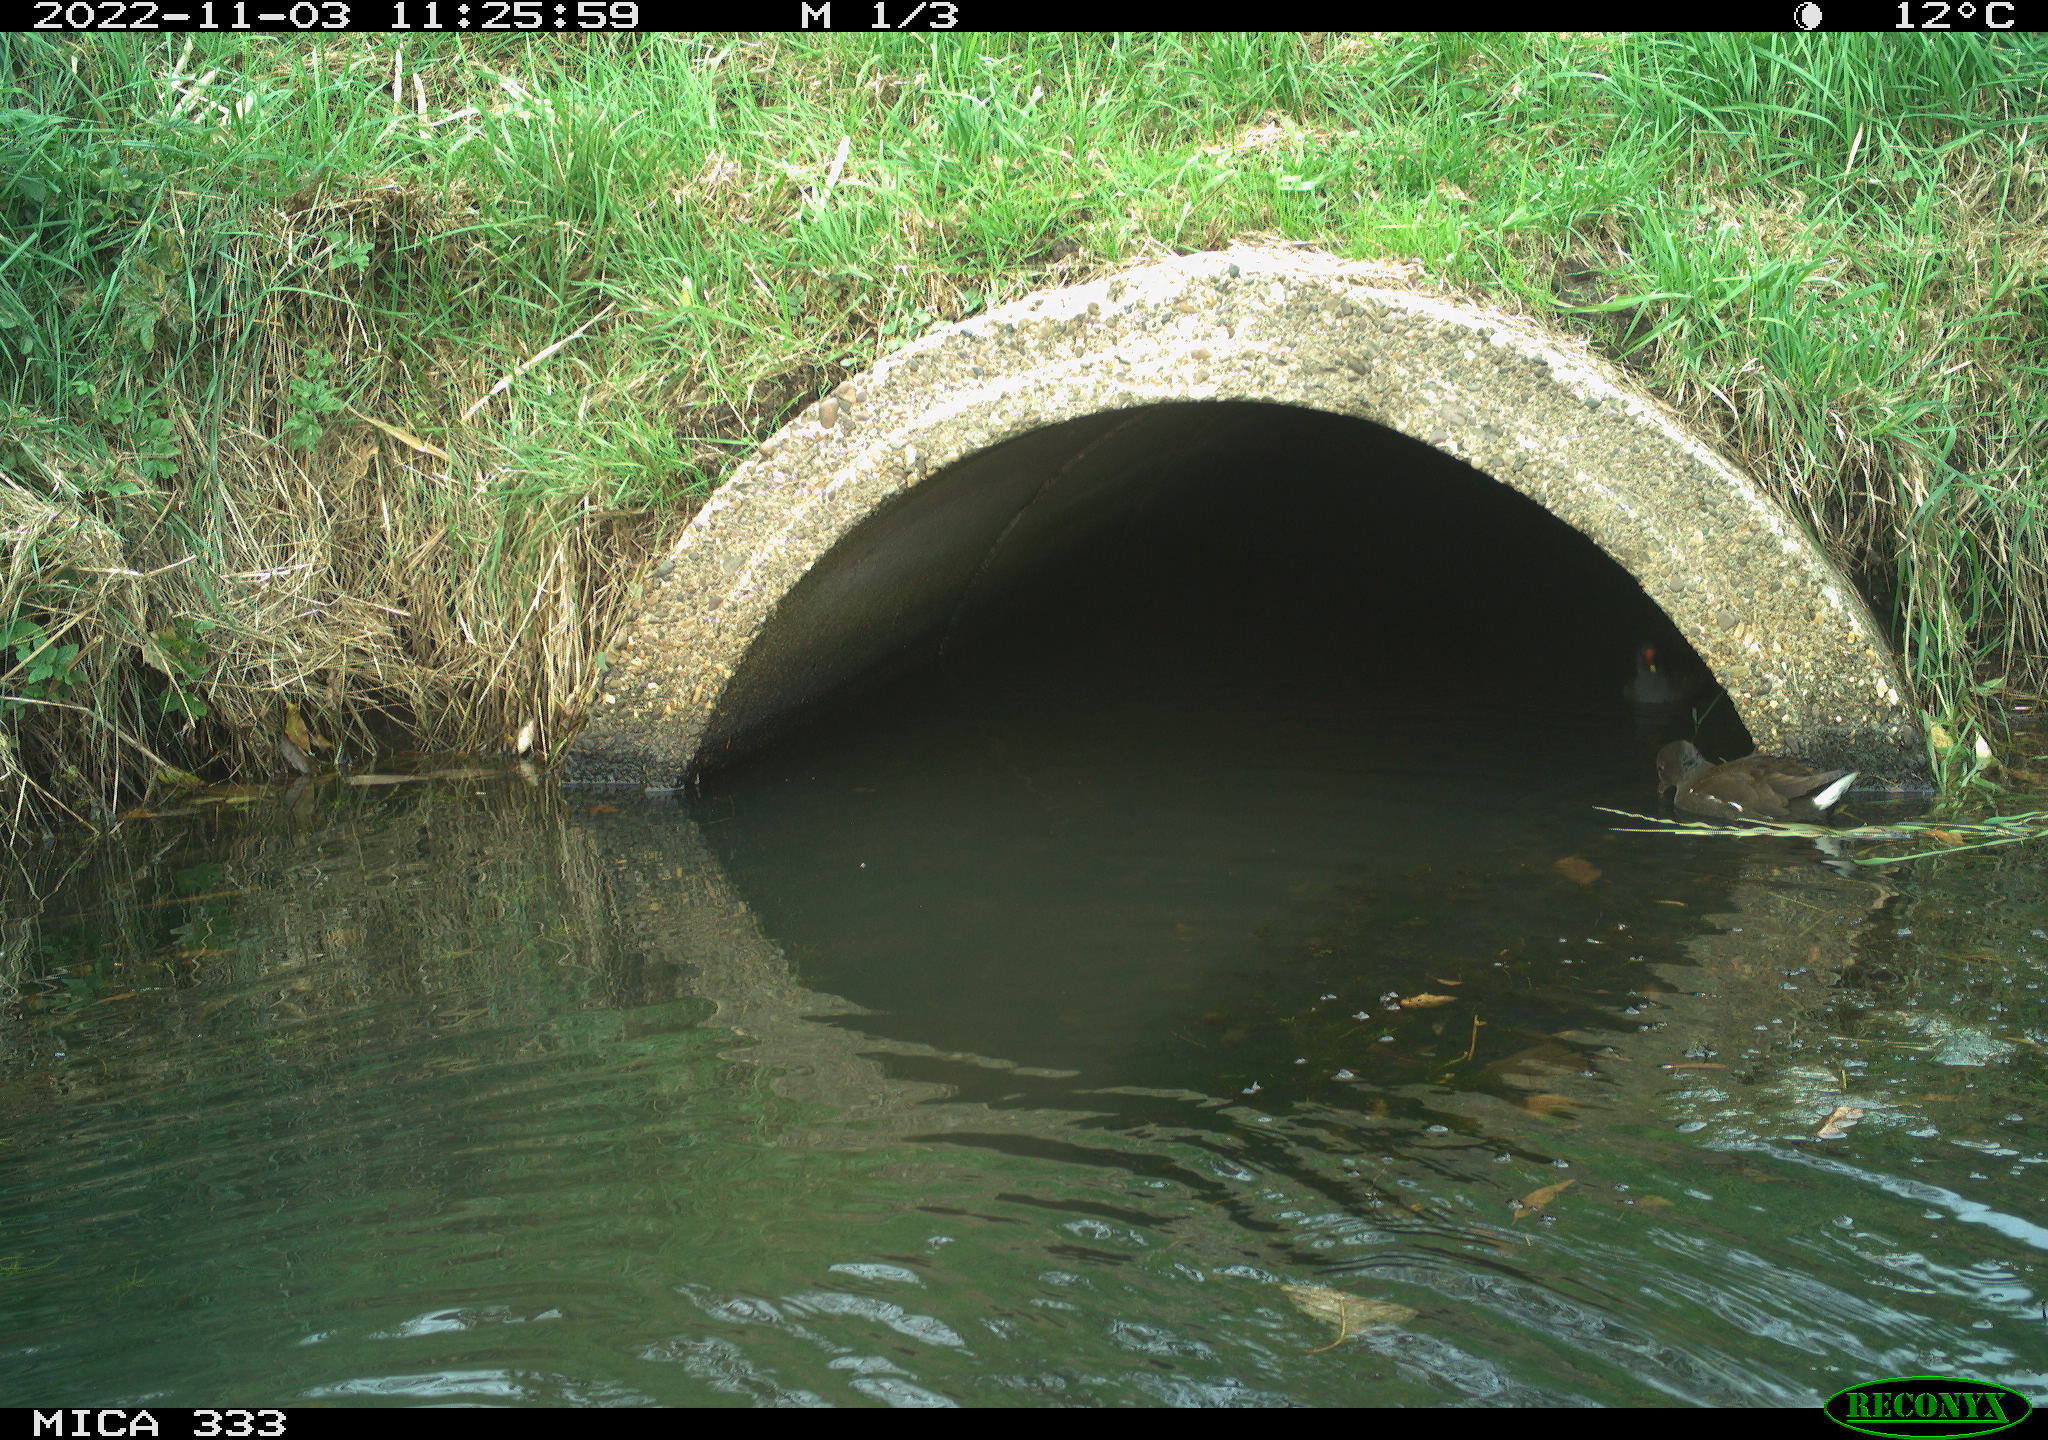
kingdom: Animalia
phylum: Chordata
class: Aves
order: Gruiformes
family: Rallidae
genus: Gallinula
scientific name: Gallinula chloropus
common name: Common moorhen
